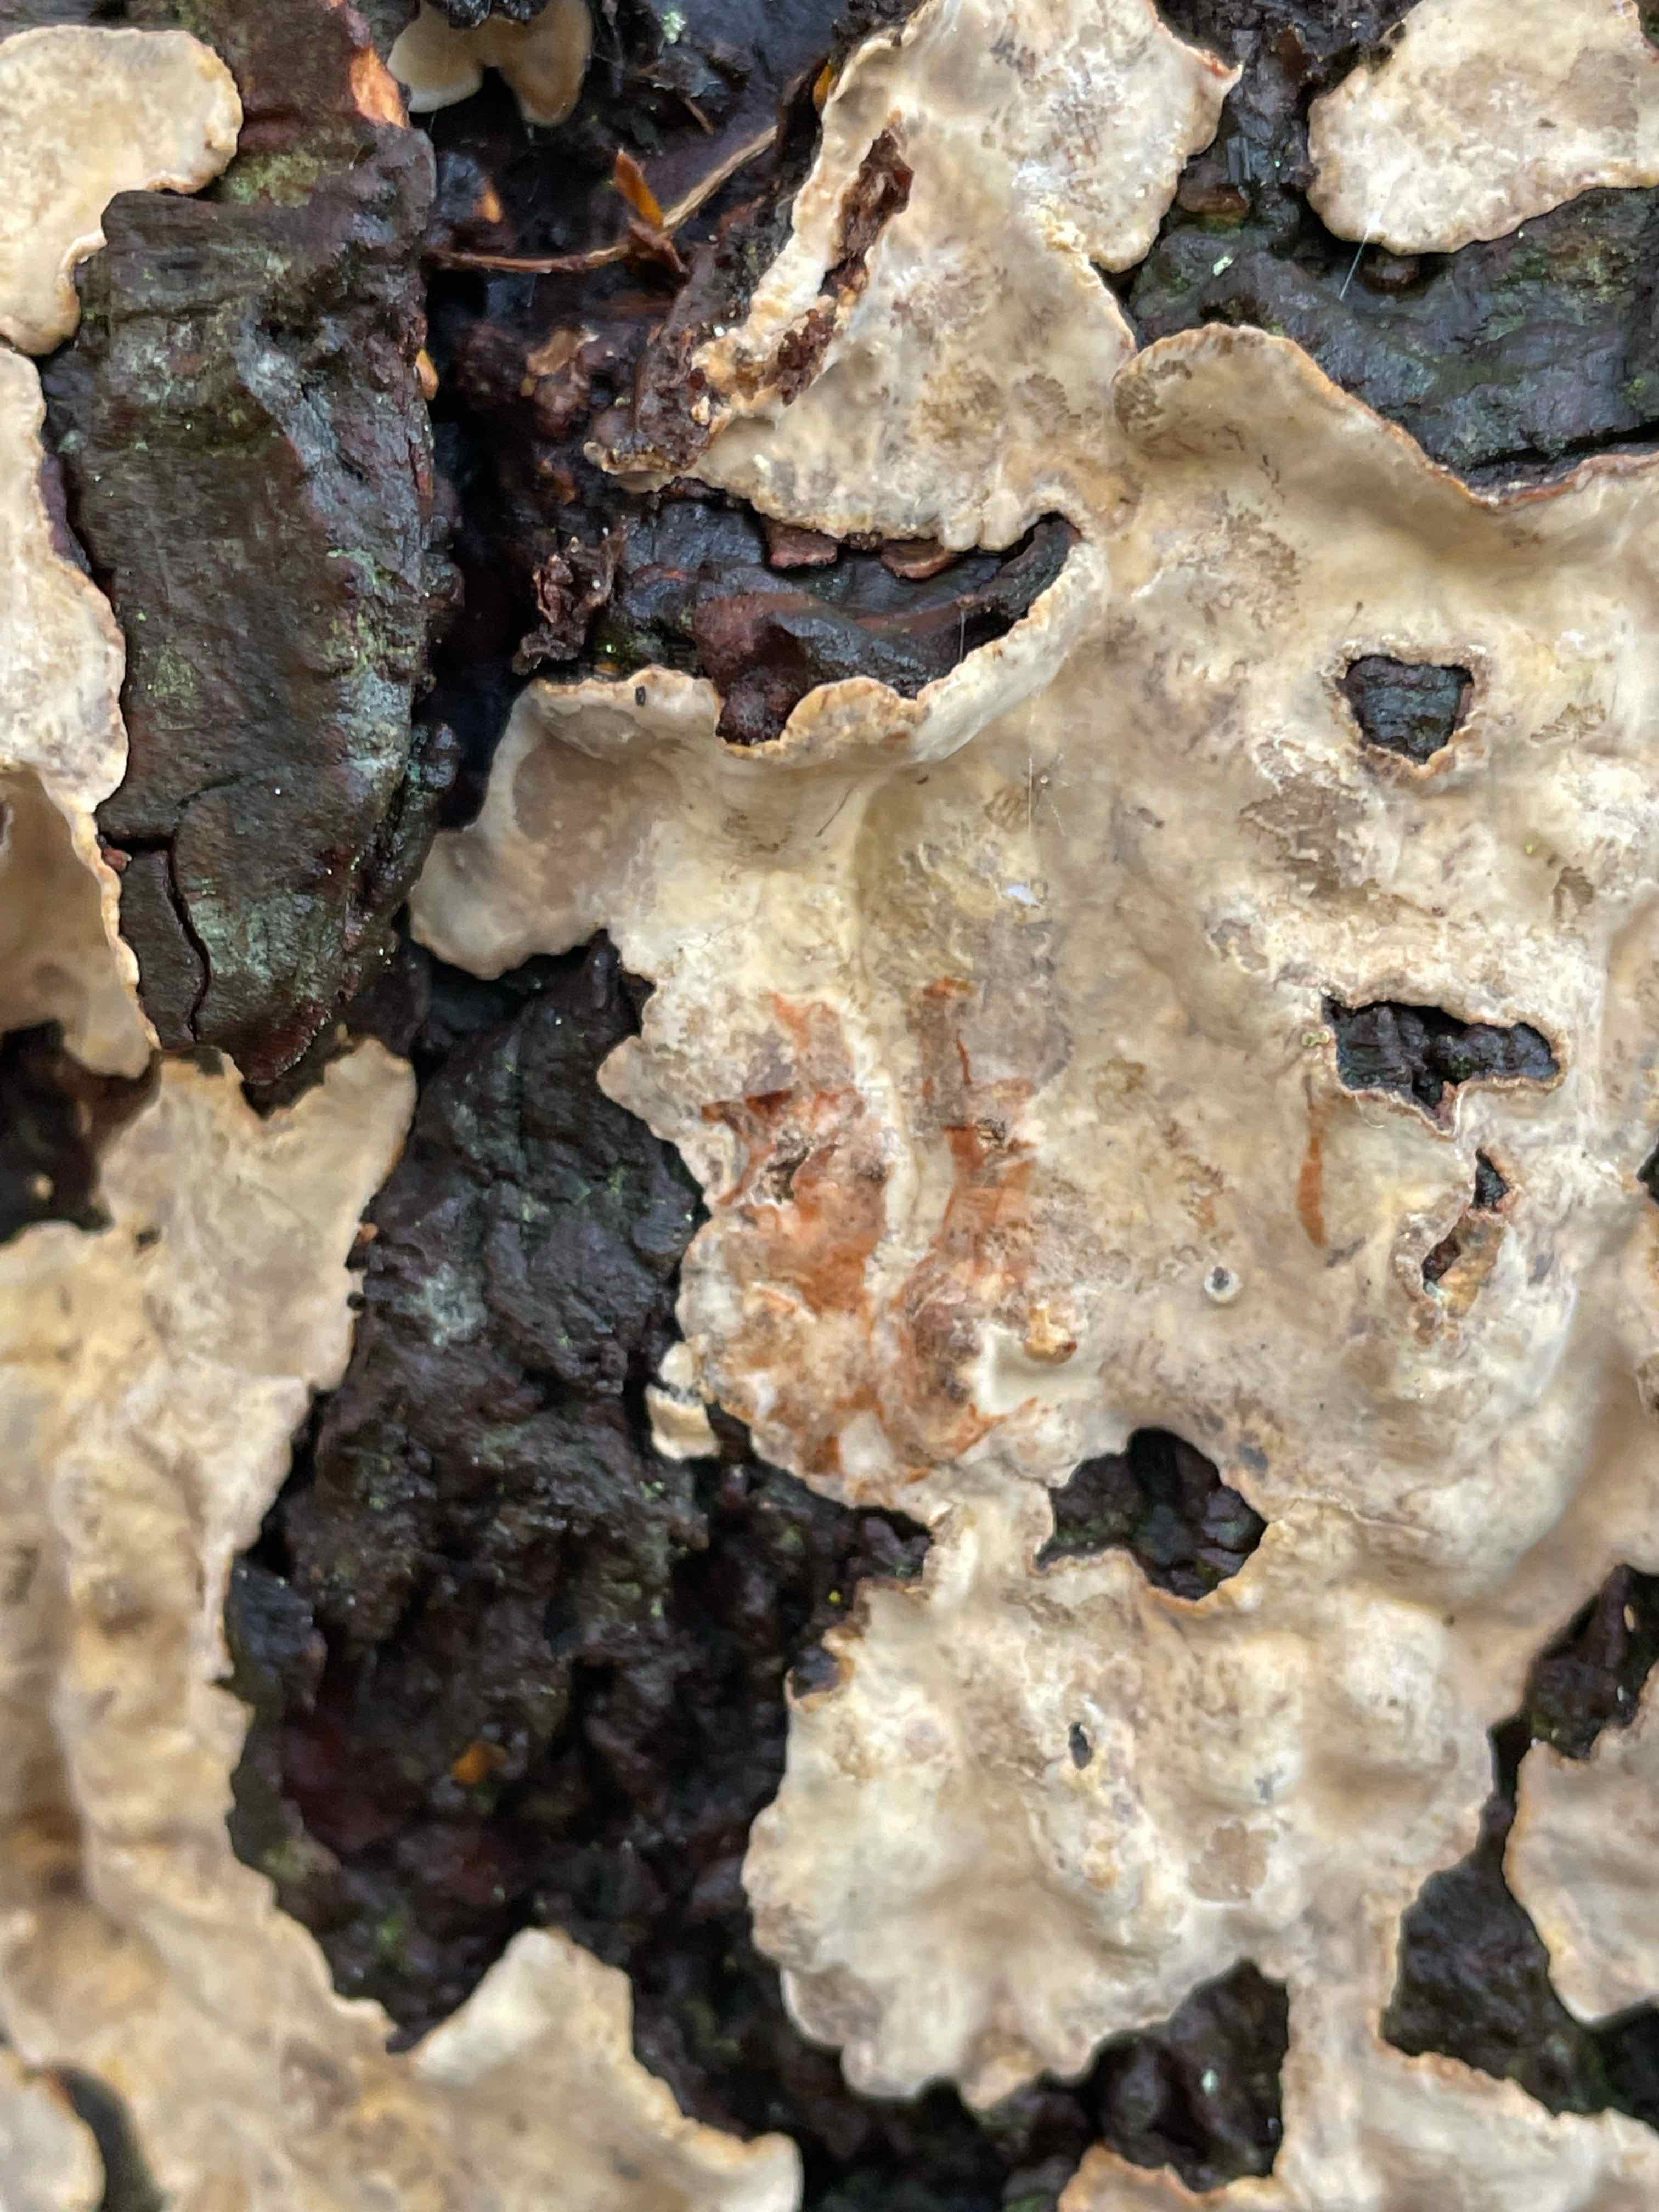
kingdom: Fungi
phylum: Basidiomycota
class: Agaricomycetes
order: Russulales
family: Stereaceae
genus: Stereum
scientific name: Stereum rugosum
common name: rynket lædersvamp
